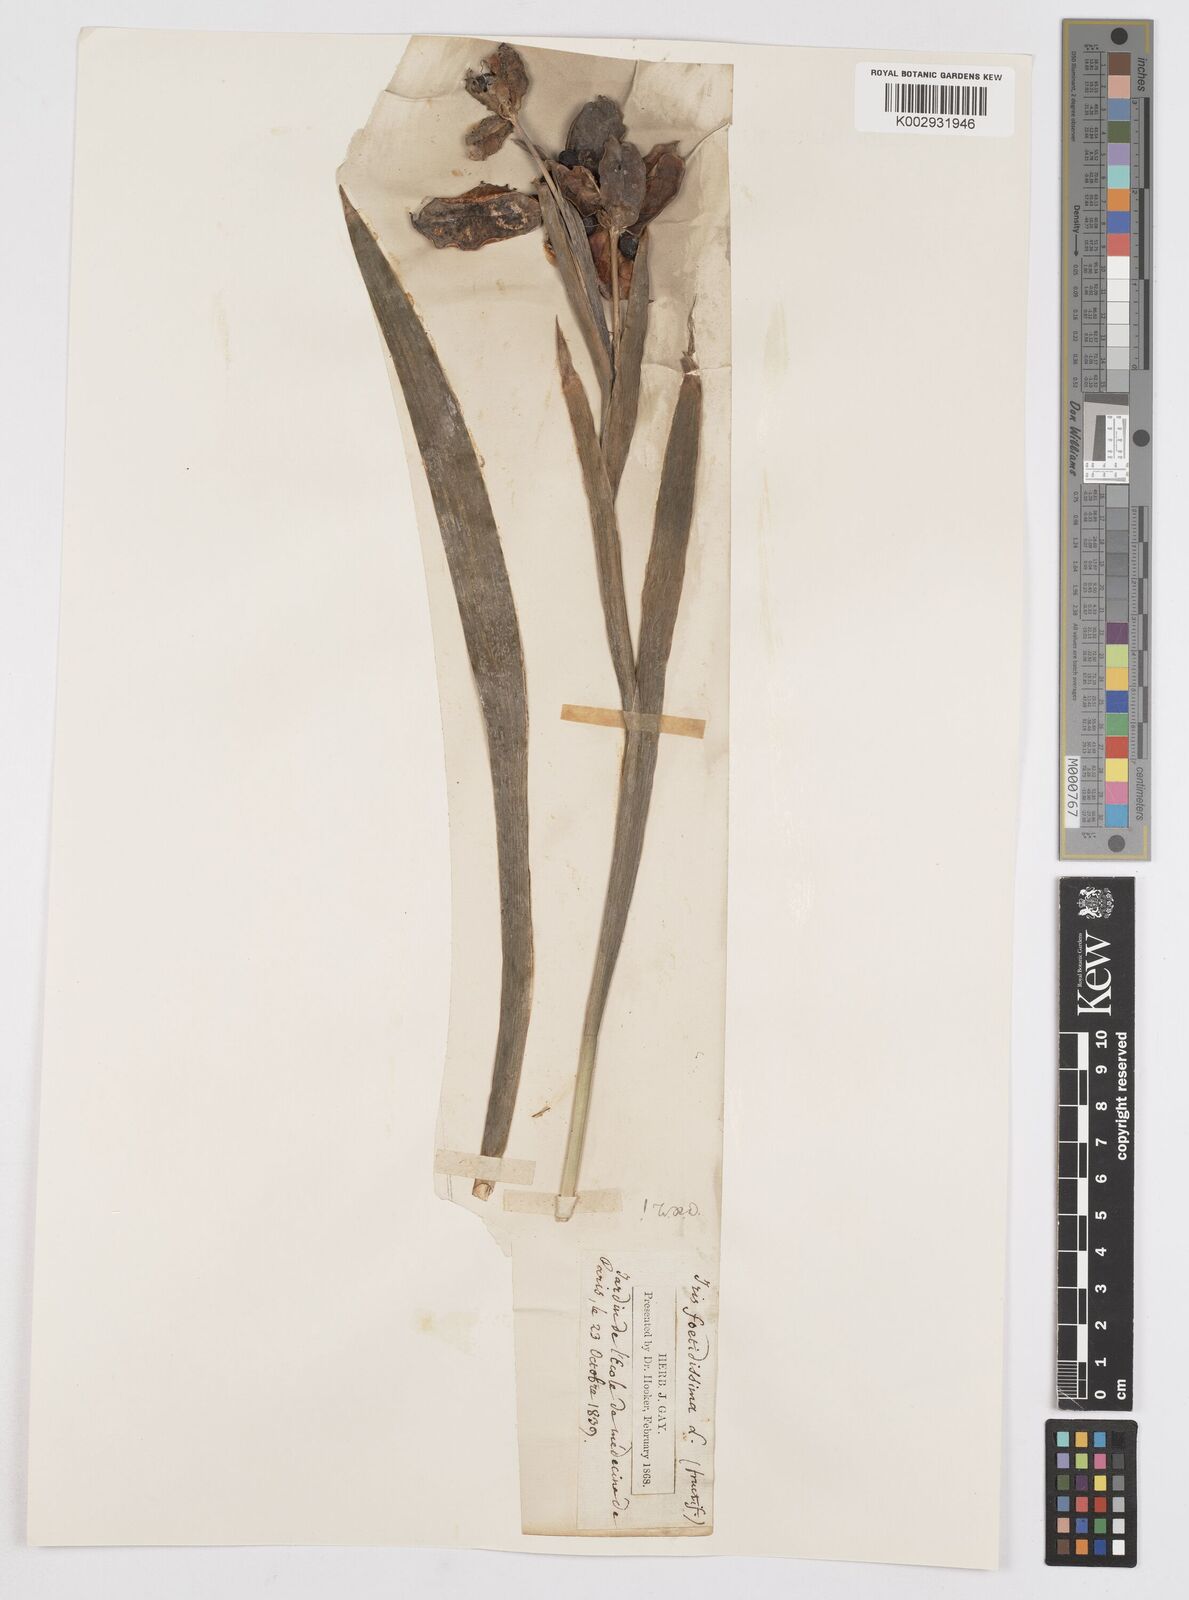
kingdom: Plantae
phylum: Tracheophyta
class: Liliopsida
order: Asparagales
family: Iridaceae
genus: Iris
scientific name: Iris foetidissima
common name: Stinking iris
